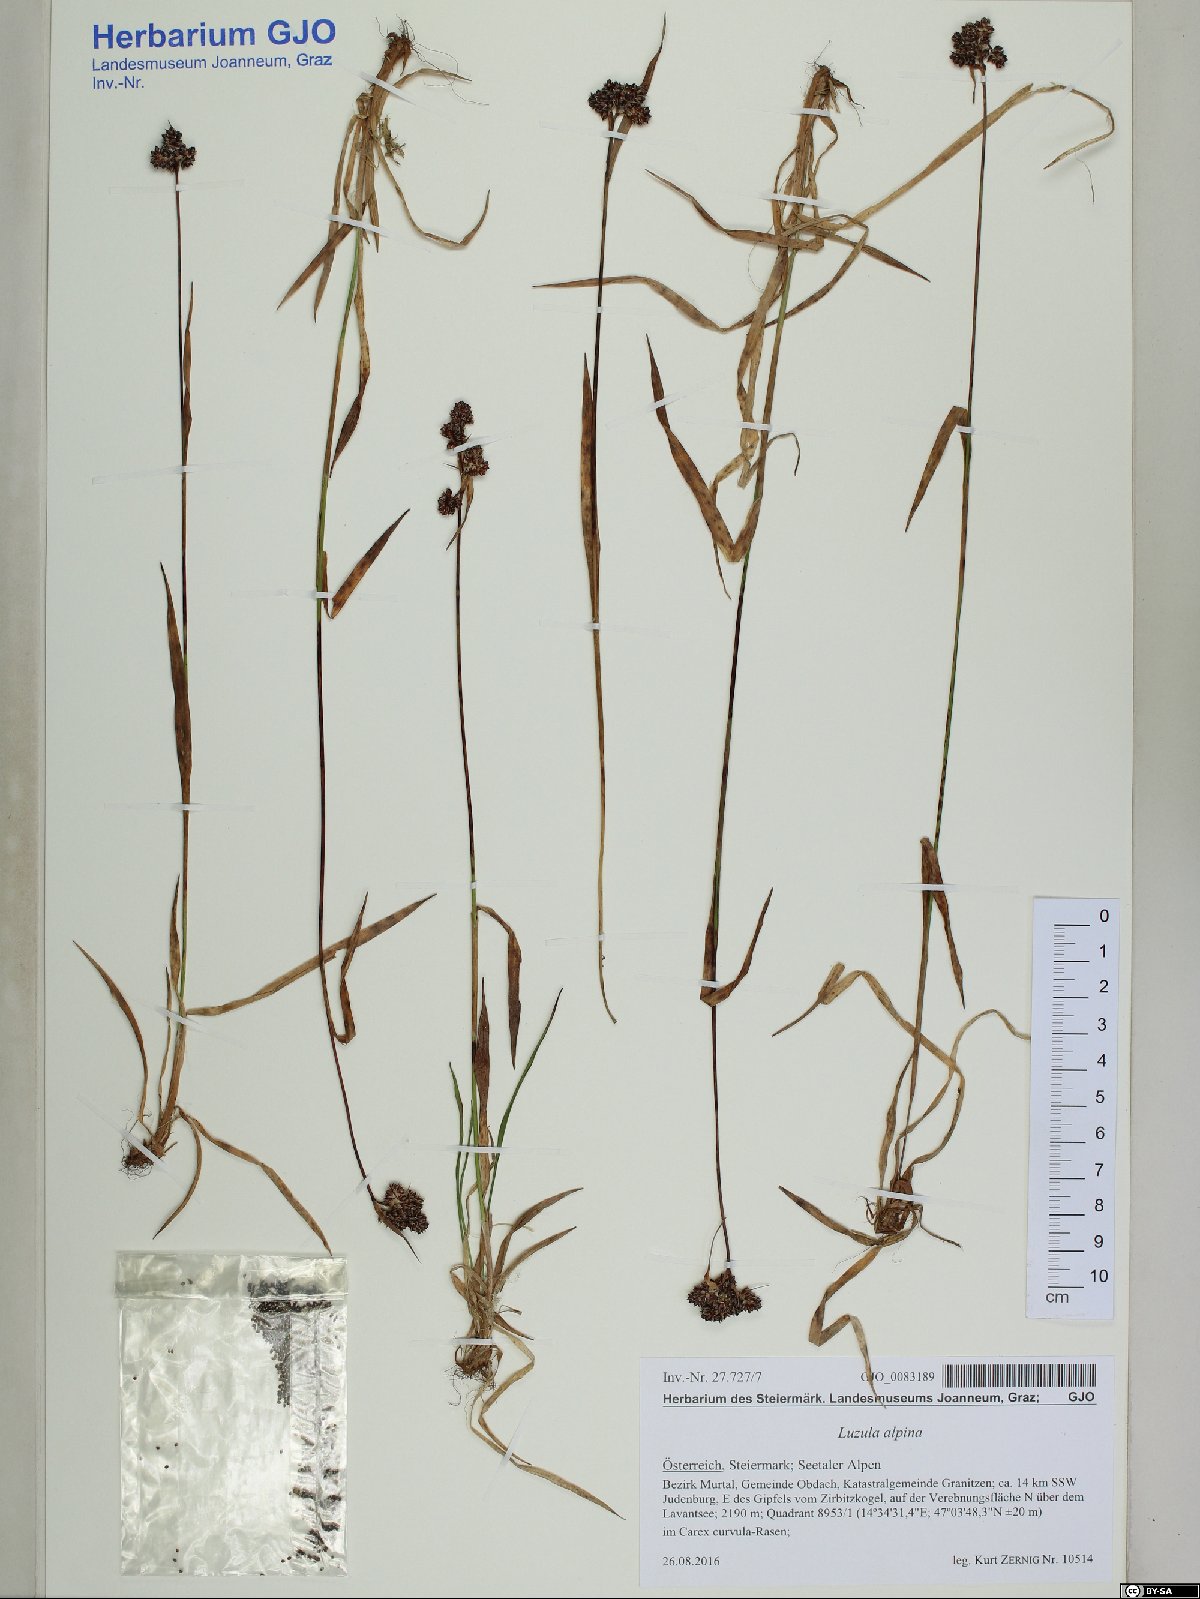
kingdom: Plantae
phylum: Tracheophyta
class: Liliopsida
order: Poales
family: Juncaceae
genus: Luzula
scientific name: Luzula alpina
